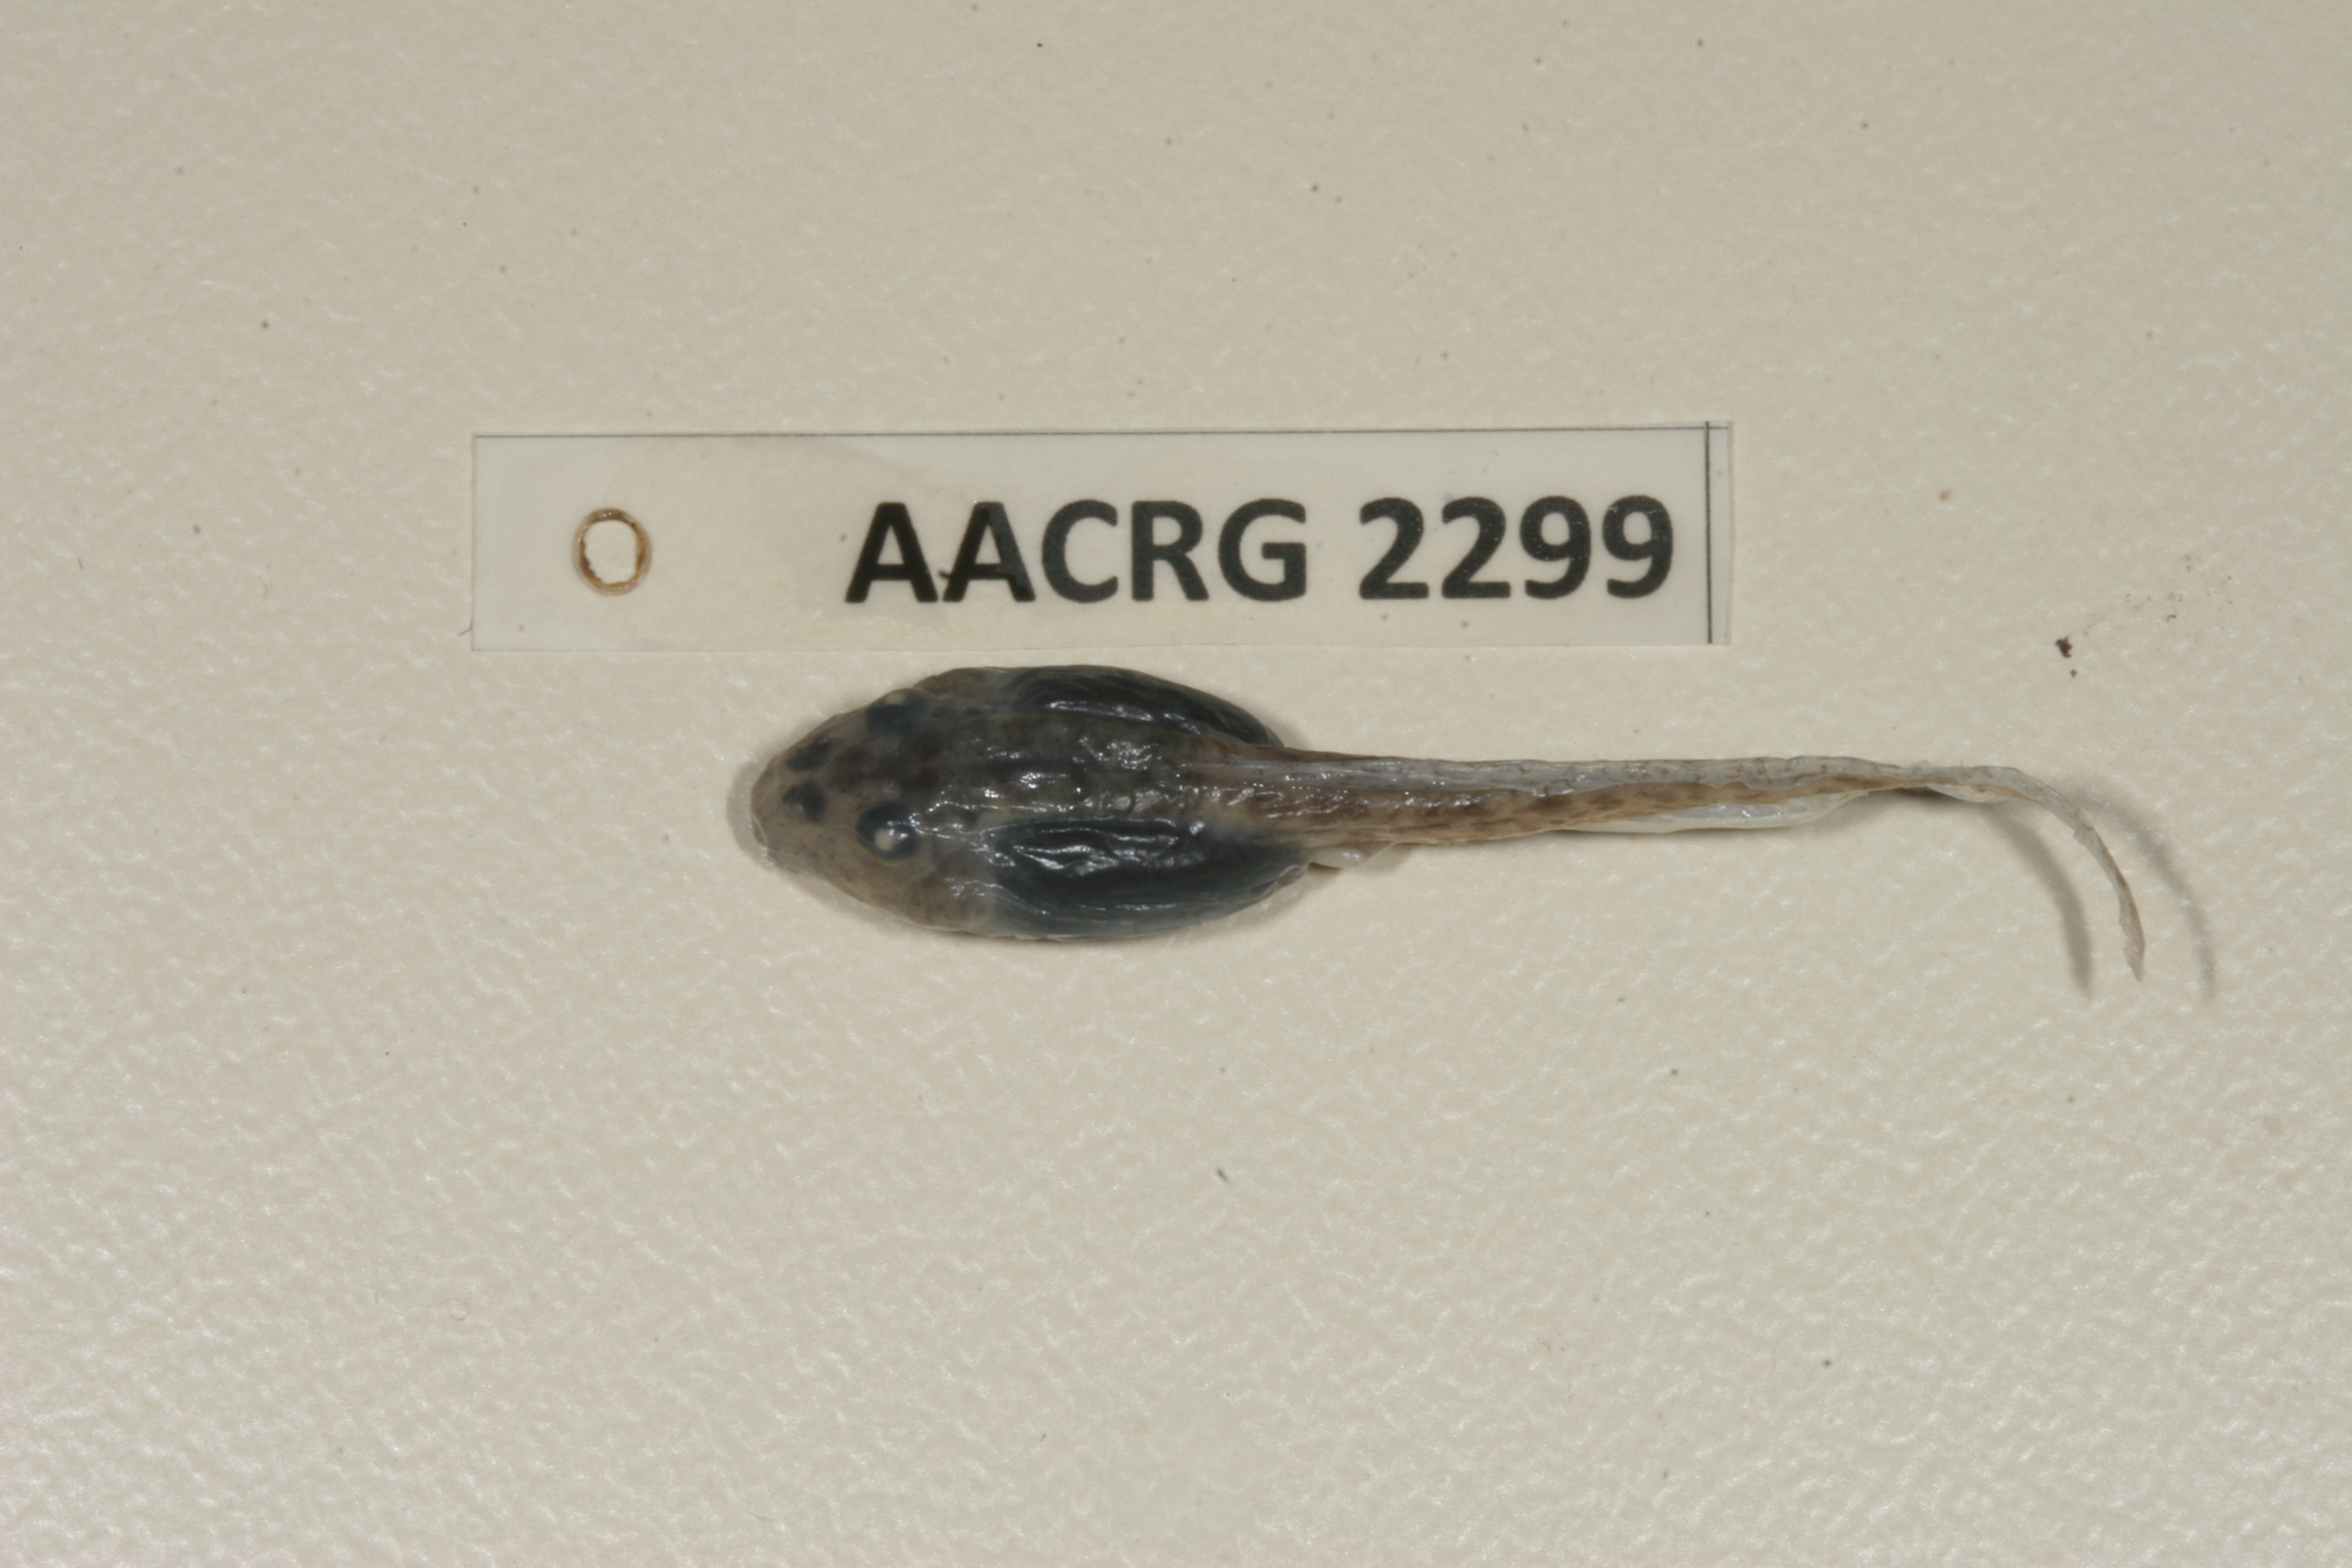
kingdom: Animalia
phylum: Chordata
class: Amphibia
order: Anura
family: Pyxicephalidae
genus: Strongylopus
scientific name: Strongylopus grayii
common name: Gray's stream frog
